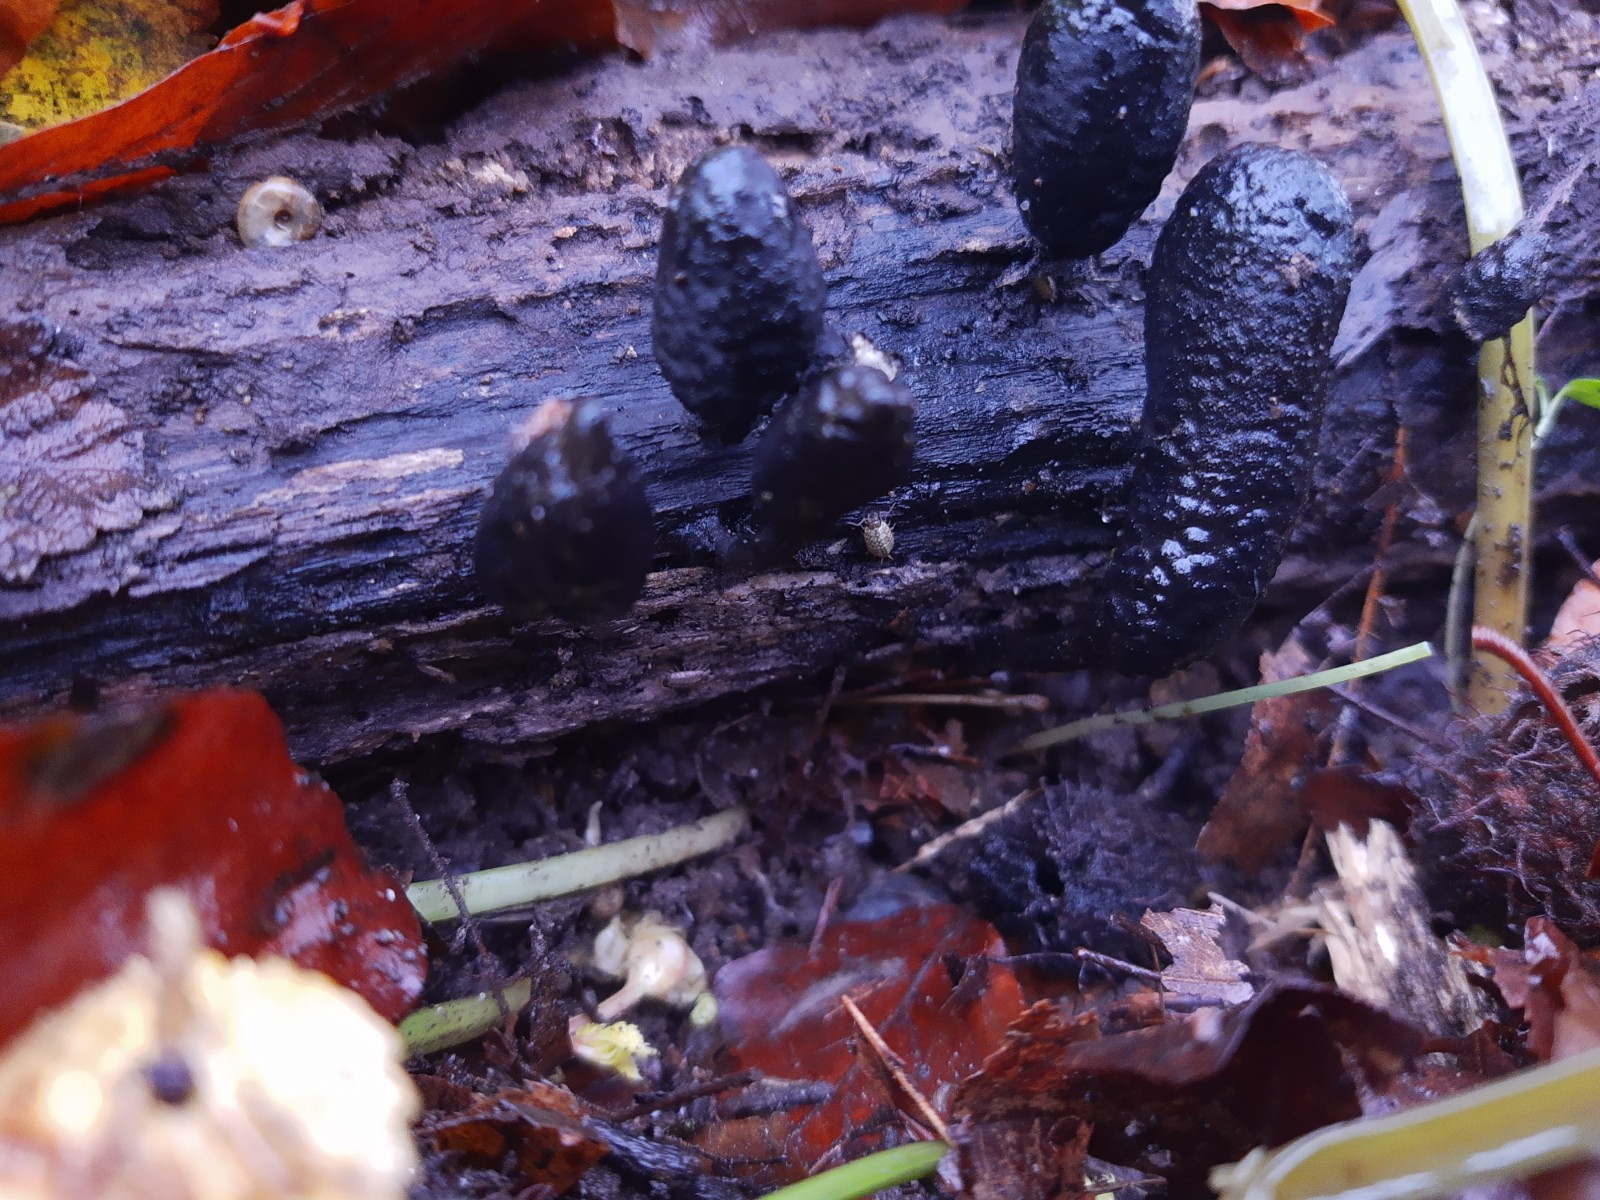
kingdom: Fungi
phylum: Ascomycota
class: Sordariomycetes
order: Xylariales
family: Xylariaceae
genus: Xylaria
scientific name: Xylaria polymorpha
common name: kølle-stødsvamp
